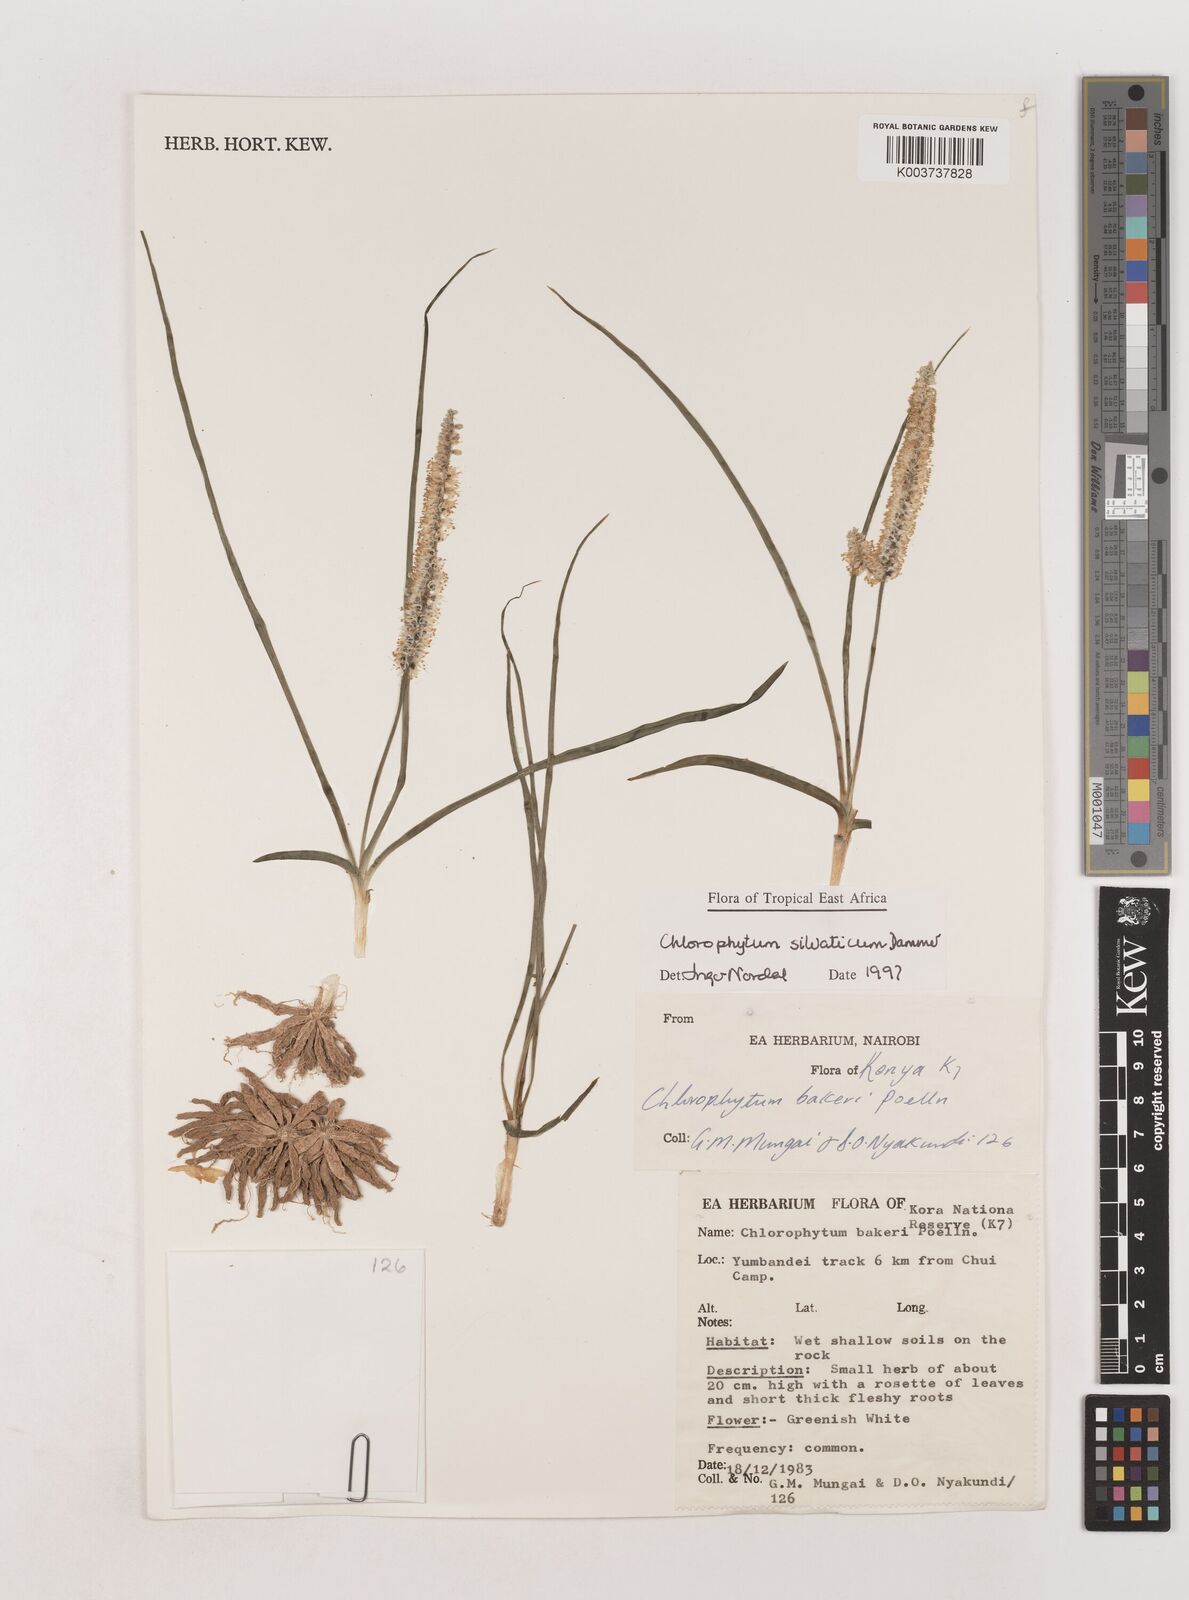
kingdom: Plantae
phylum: Tracheophyta
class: Liliopsida
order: Asparagales
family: Asparagaceae
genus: Chlorophytum
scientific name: Chlorophytum africanum
